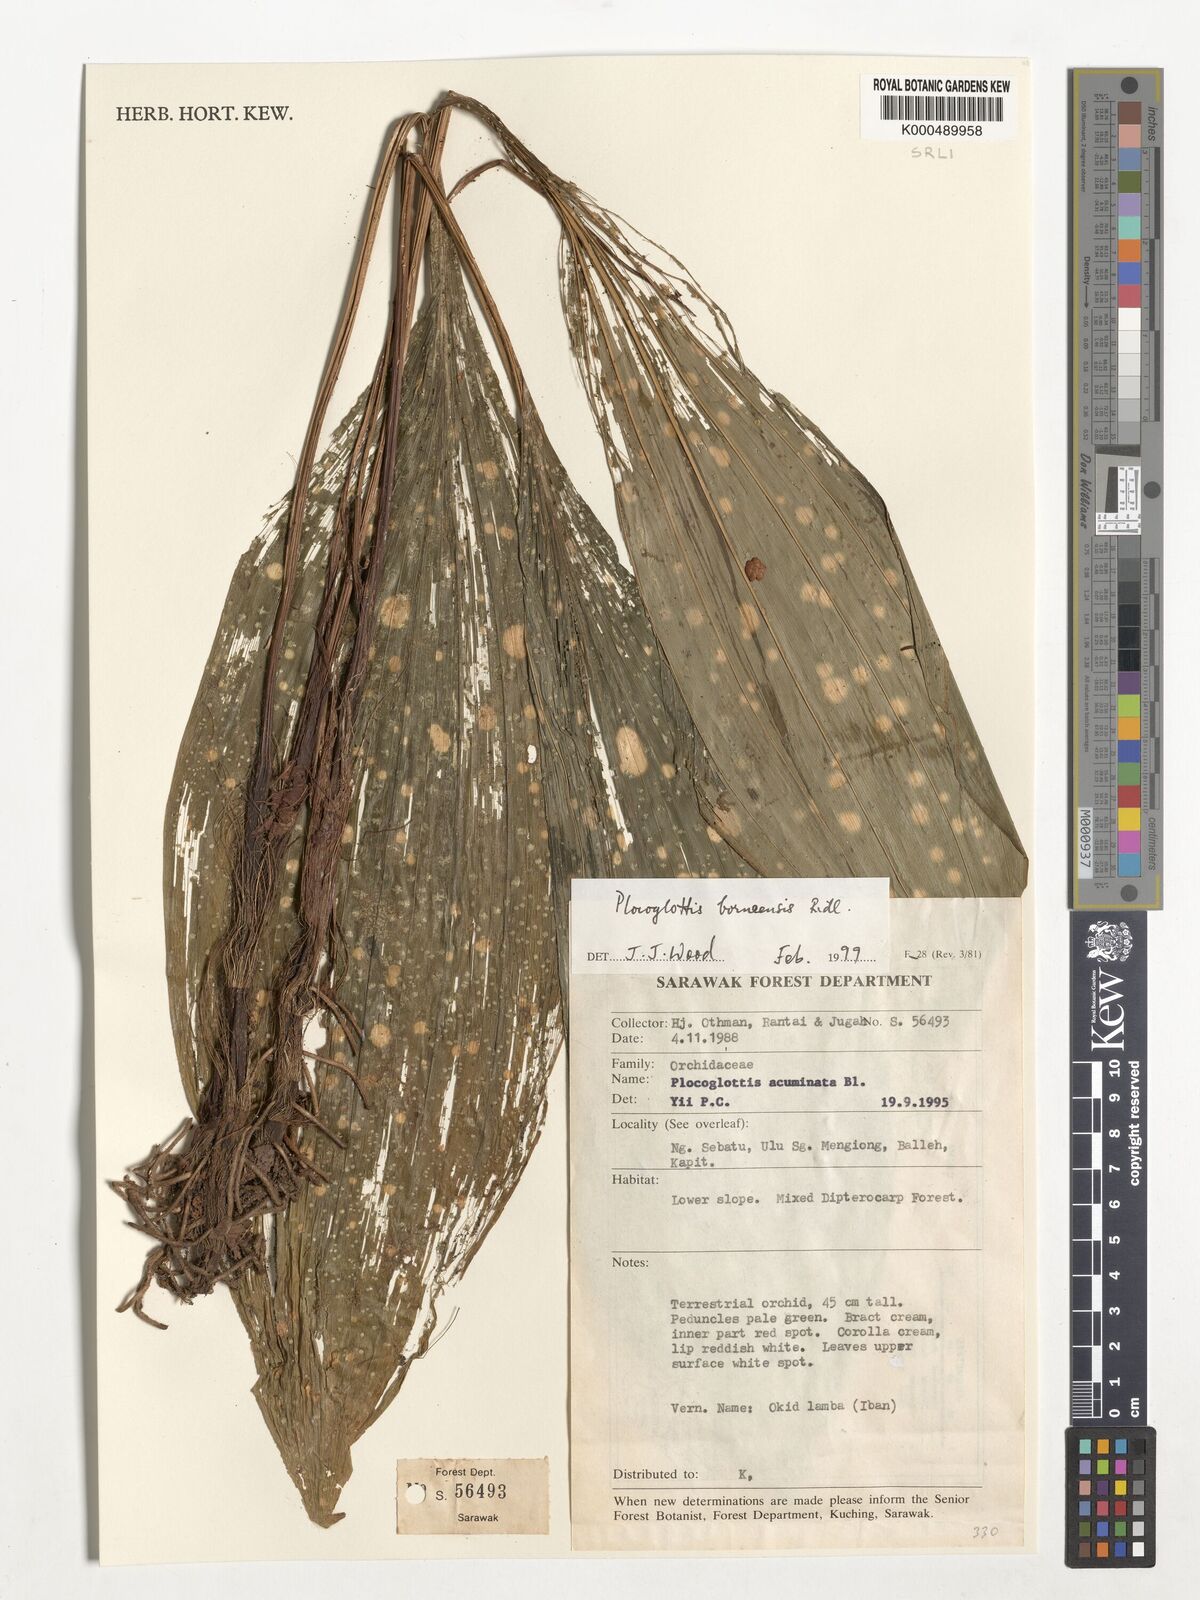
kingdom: Plantae
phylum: Tracheophyta
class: Liliopsida
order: Asparagales
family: Orchidaceae
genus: Plocoglottis
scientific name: Plocoglottis borneensis
